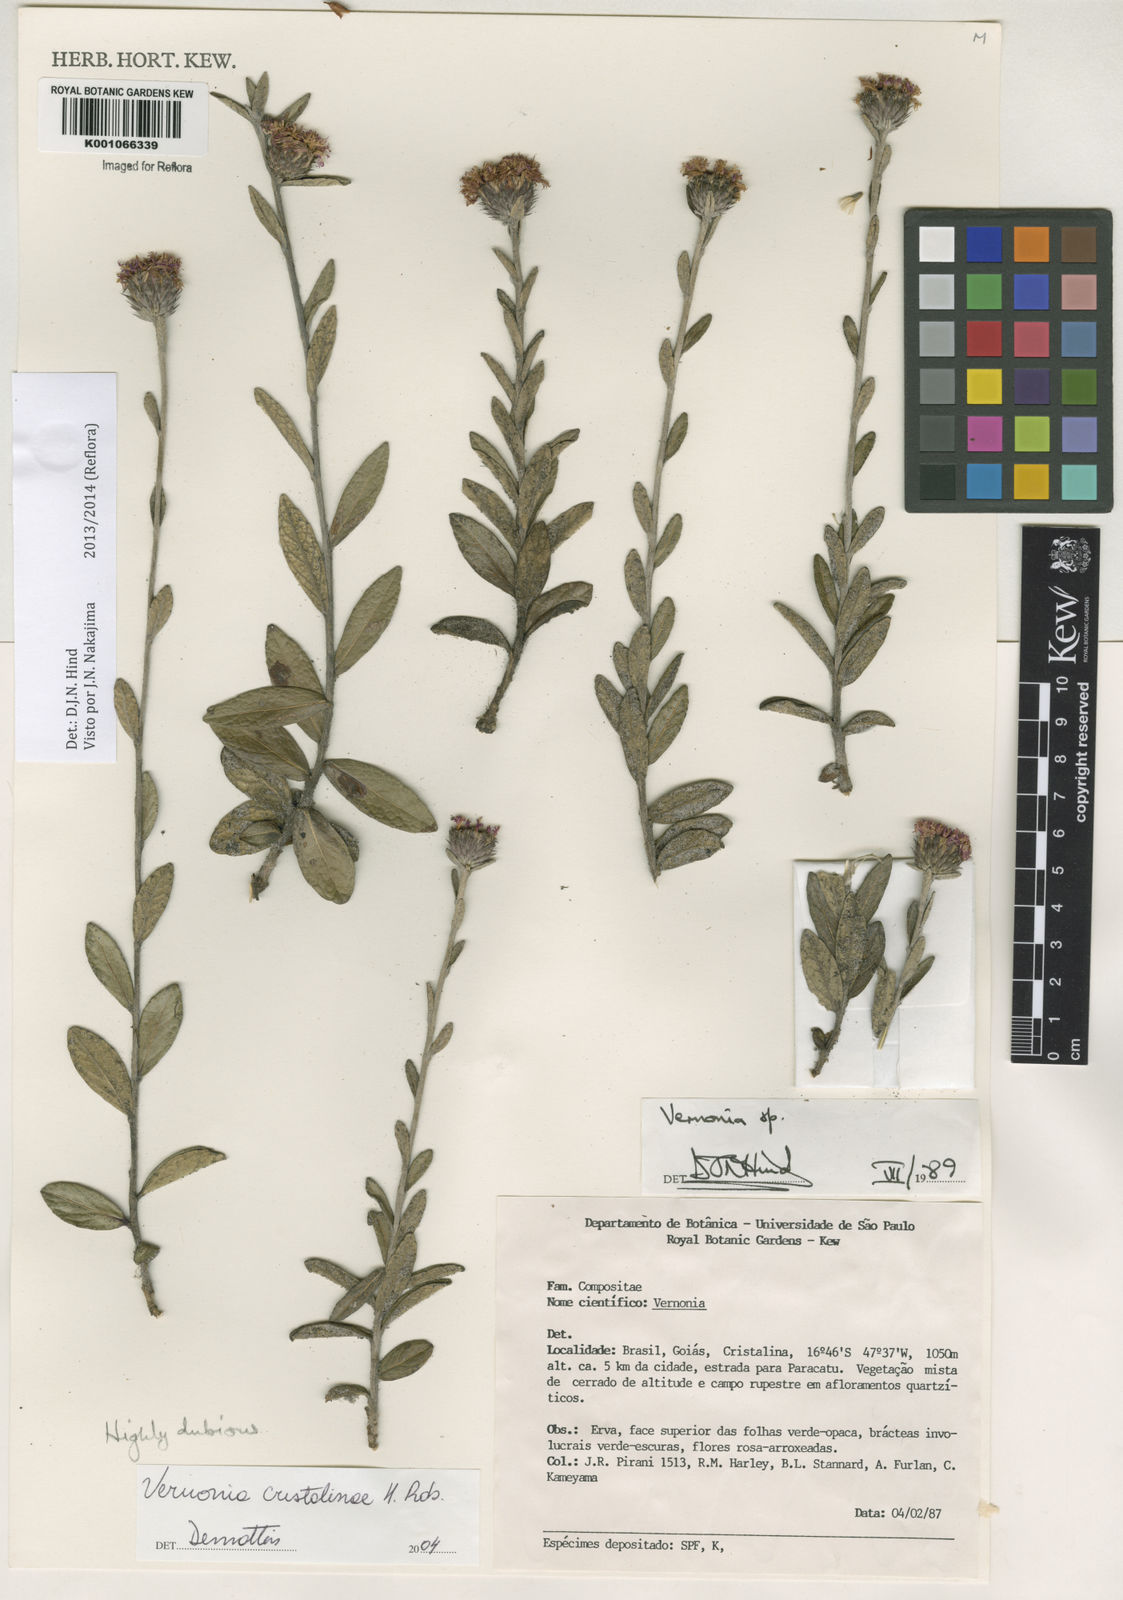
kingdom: Plantae
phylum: Tracheophyta
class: Magnoliopsida
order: Asterales
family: Asteraceae
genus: Lessingianthus
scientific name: Lessingianthus cristalinae
